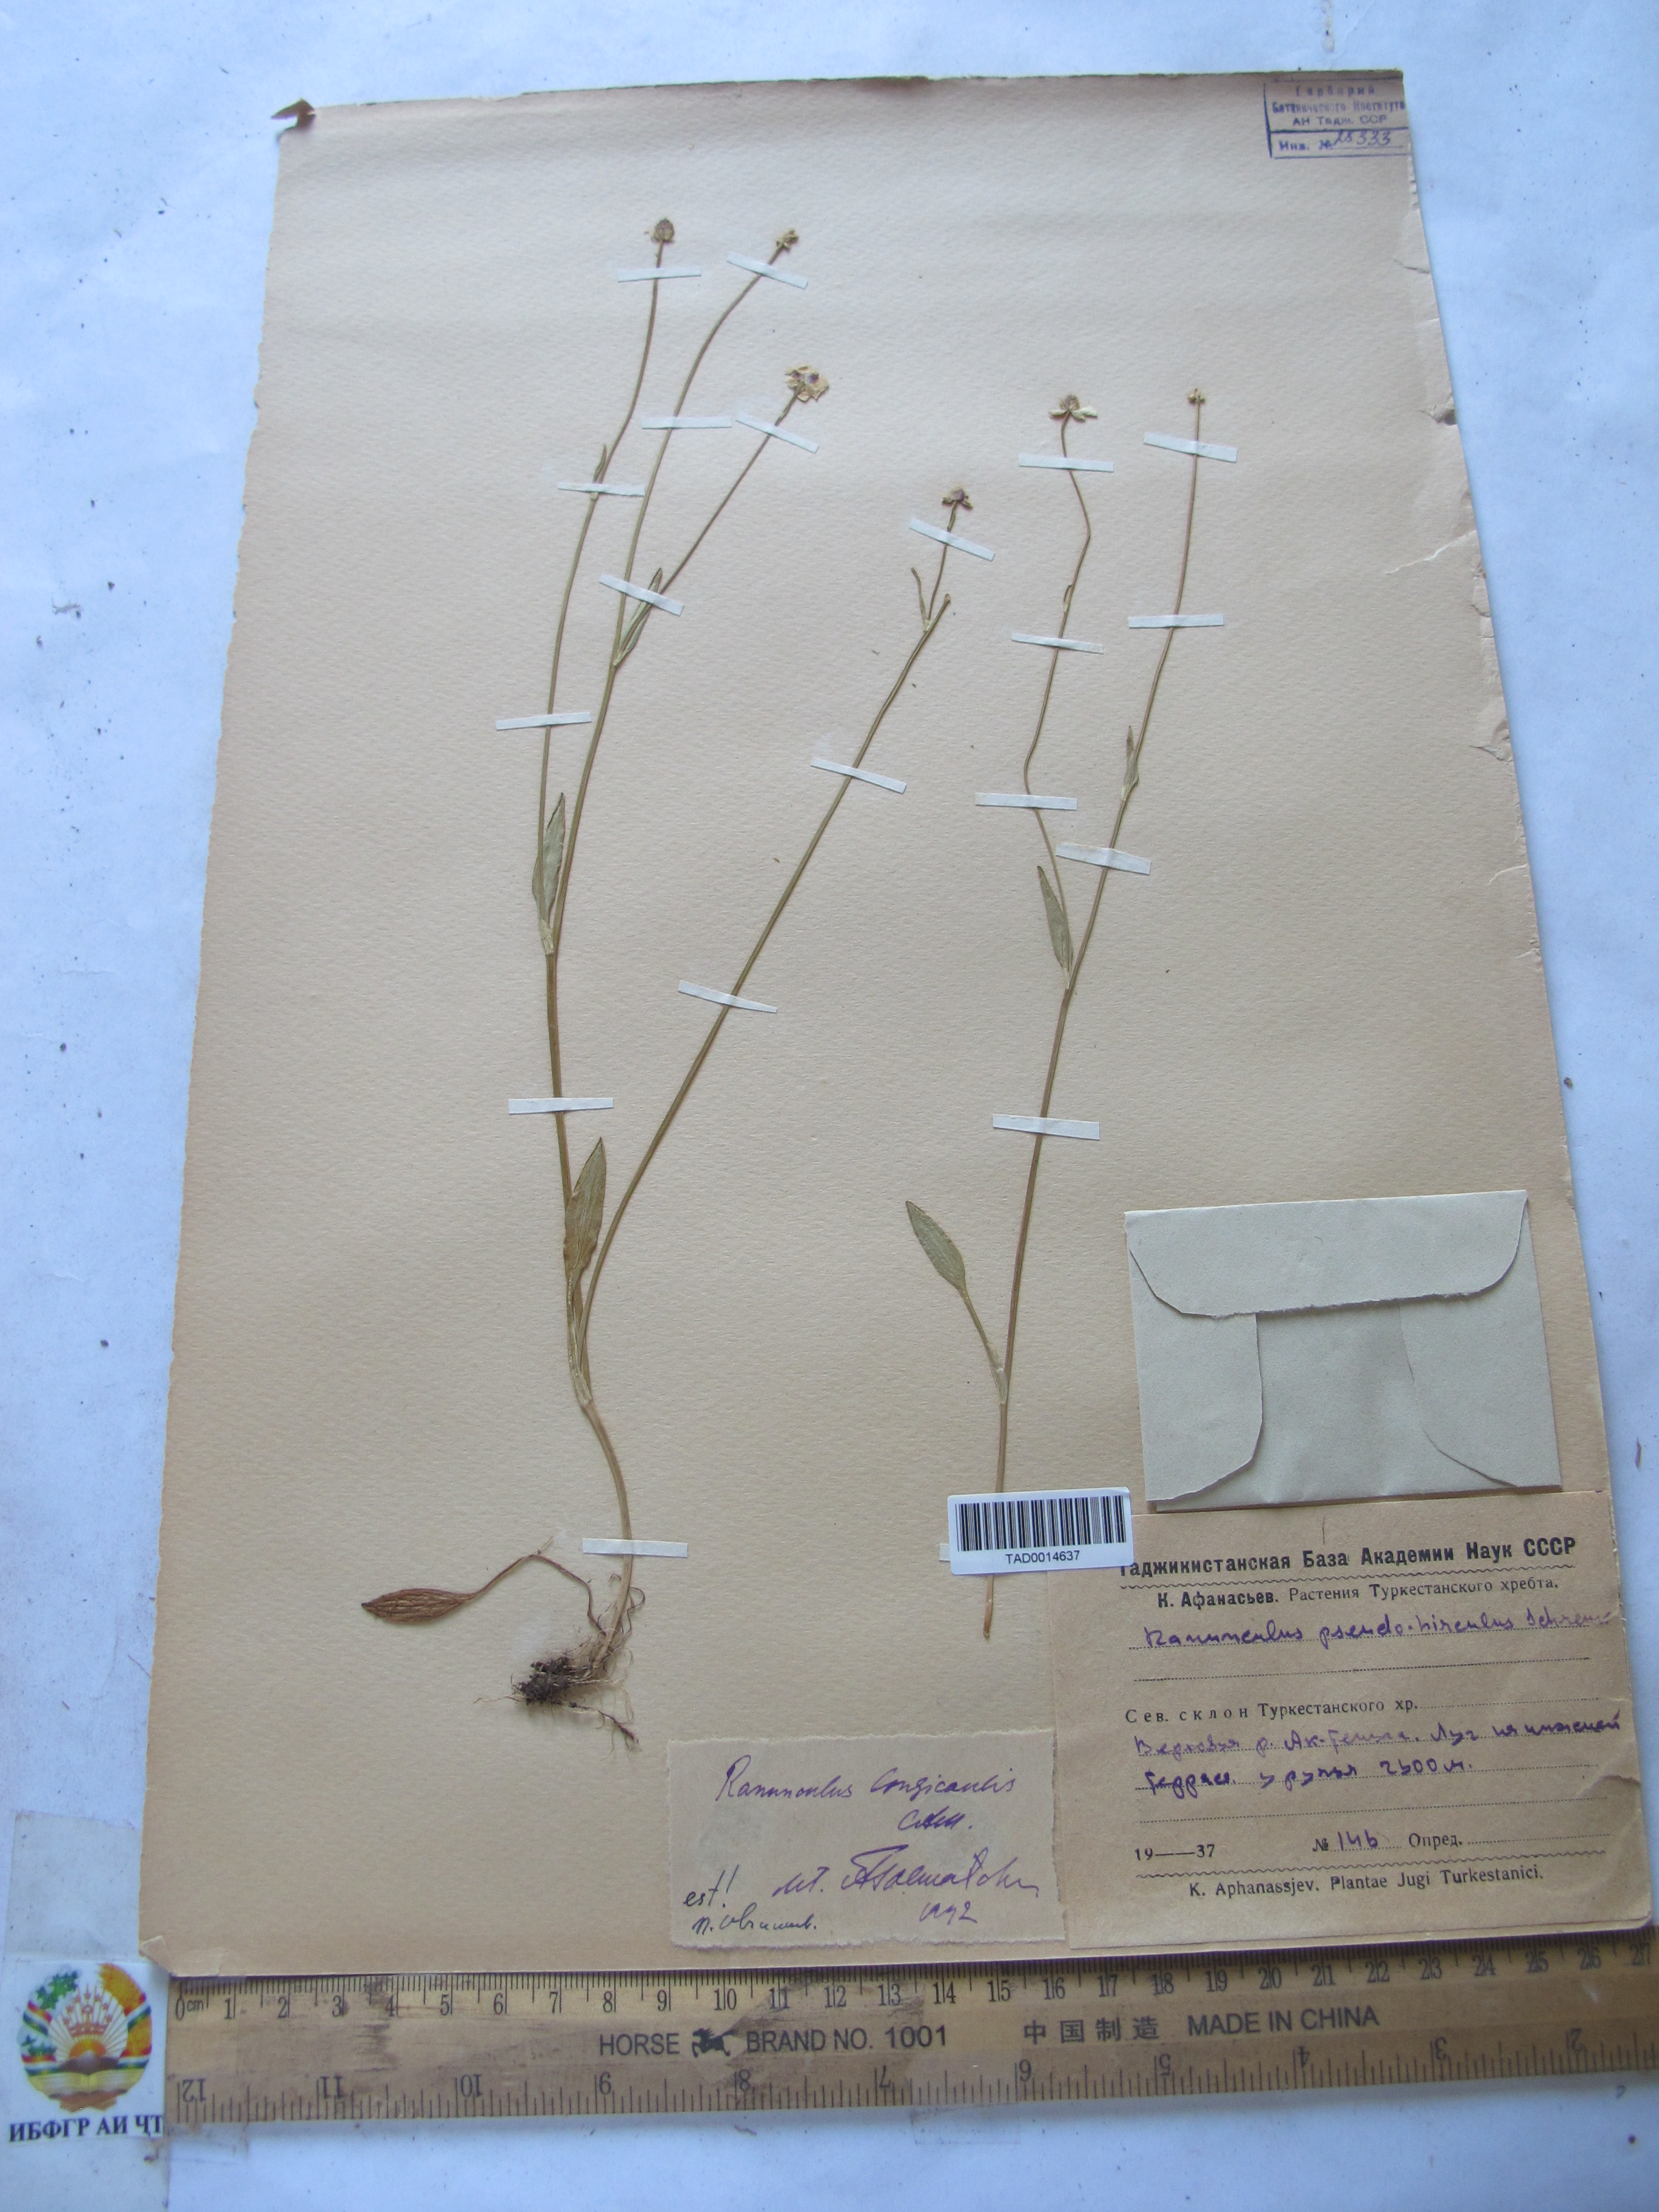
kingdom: Plantae
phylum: Tracheophyta
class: Magnoliopsida
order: Ranunculales
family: Ranunculaceae
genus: Ranunculus
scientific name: Ranunculus linearilobus
